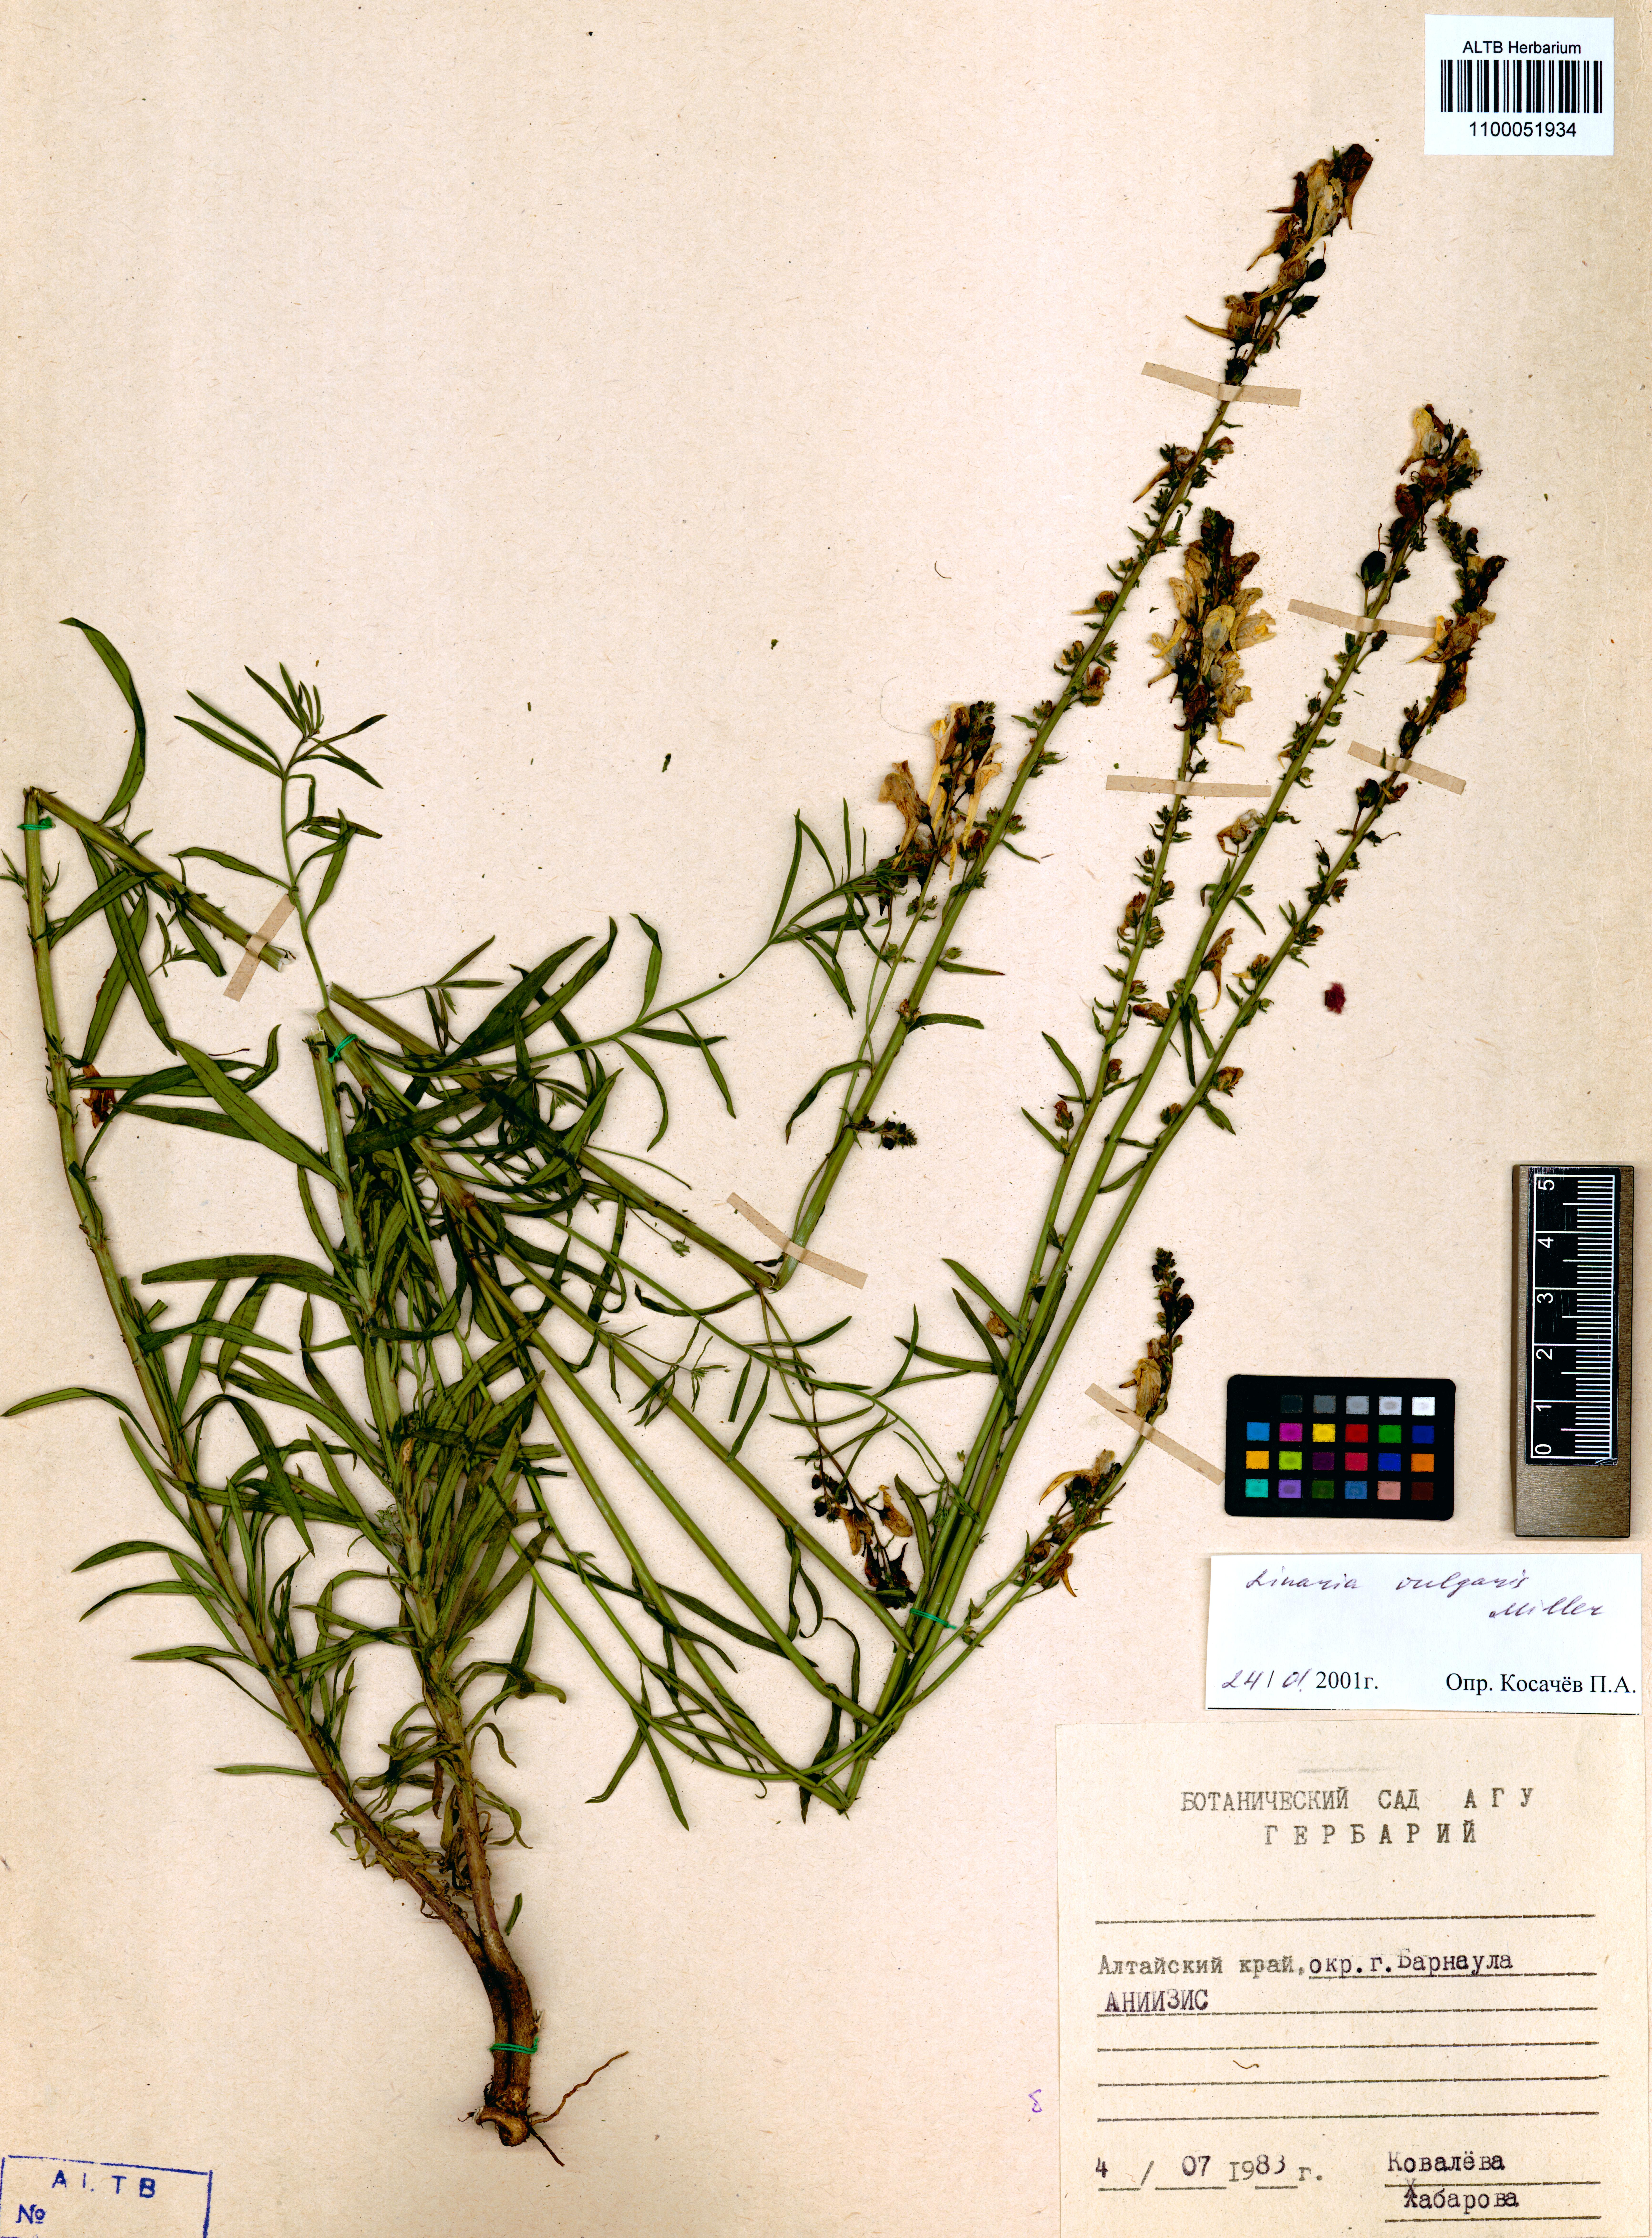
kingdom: Plantae
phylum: Tracheophyta
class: Magnoliopsida
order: Lamiales
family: Plantaginaceae
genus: Linaria
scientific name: Linaria vulgaris
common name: Butter and eggs
